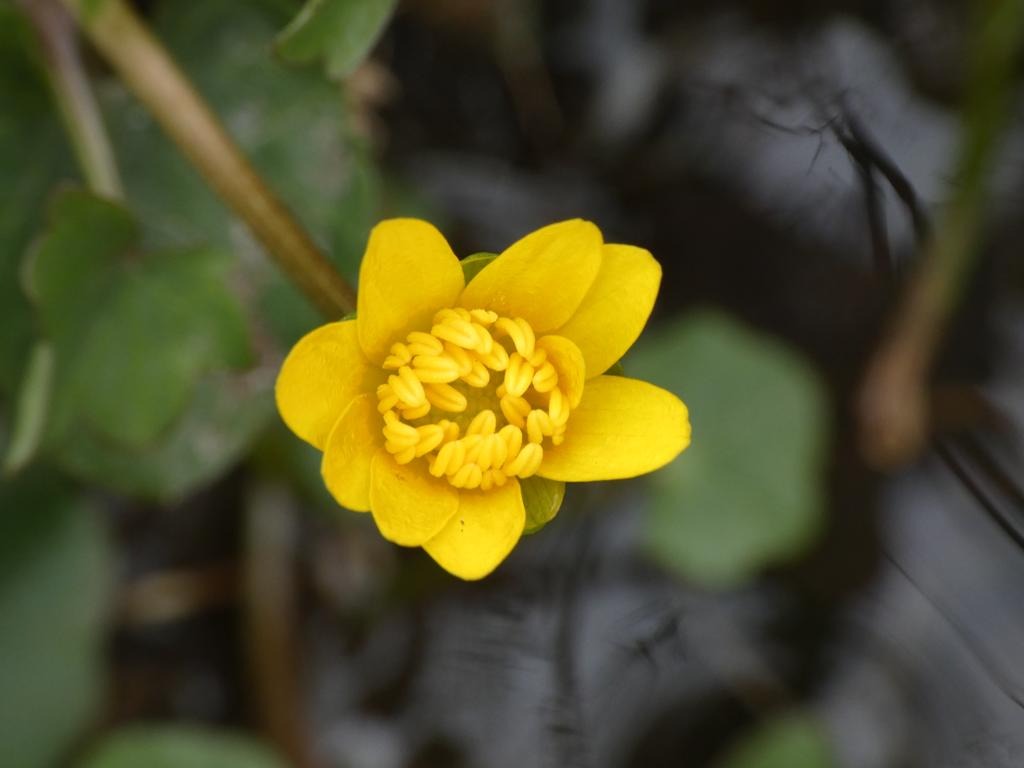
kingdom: Plantae
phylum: Tracheophyta
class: Magnoliopsida
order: Ranunculales
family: Ranunculaceae
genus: Ficaria
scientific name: Ficaria verna
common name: Vorterod
